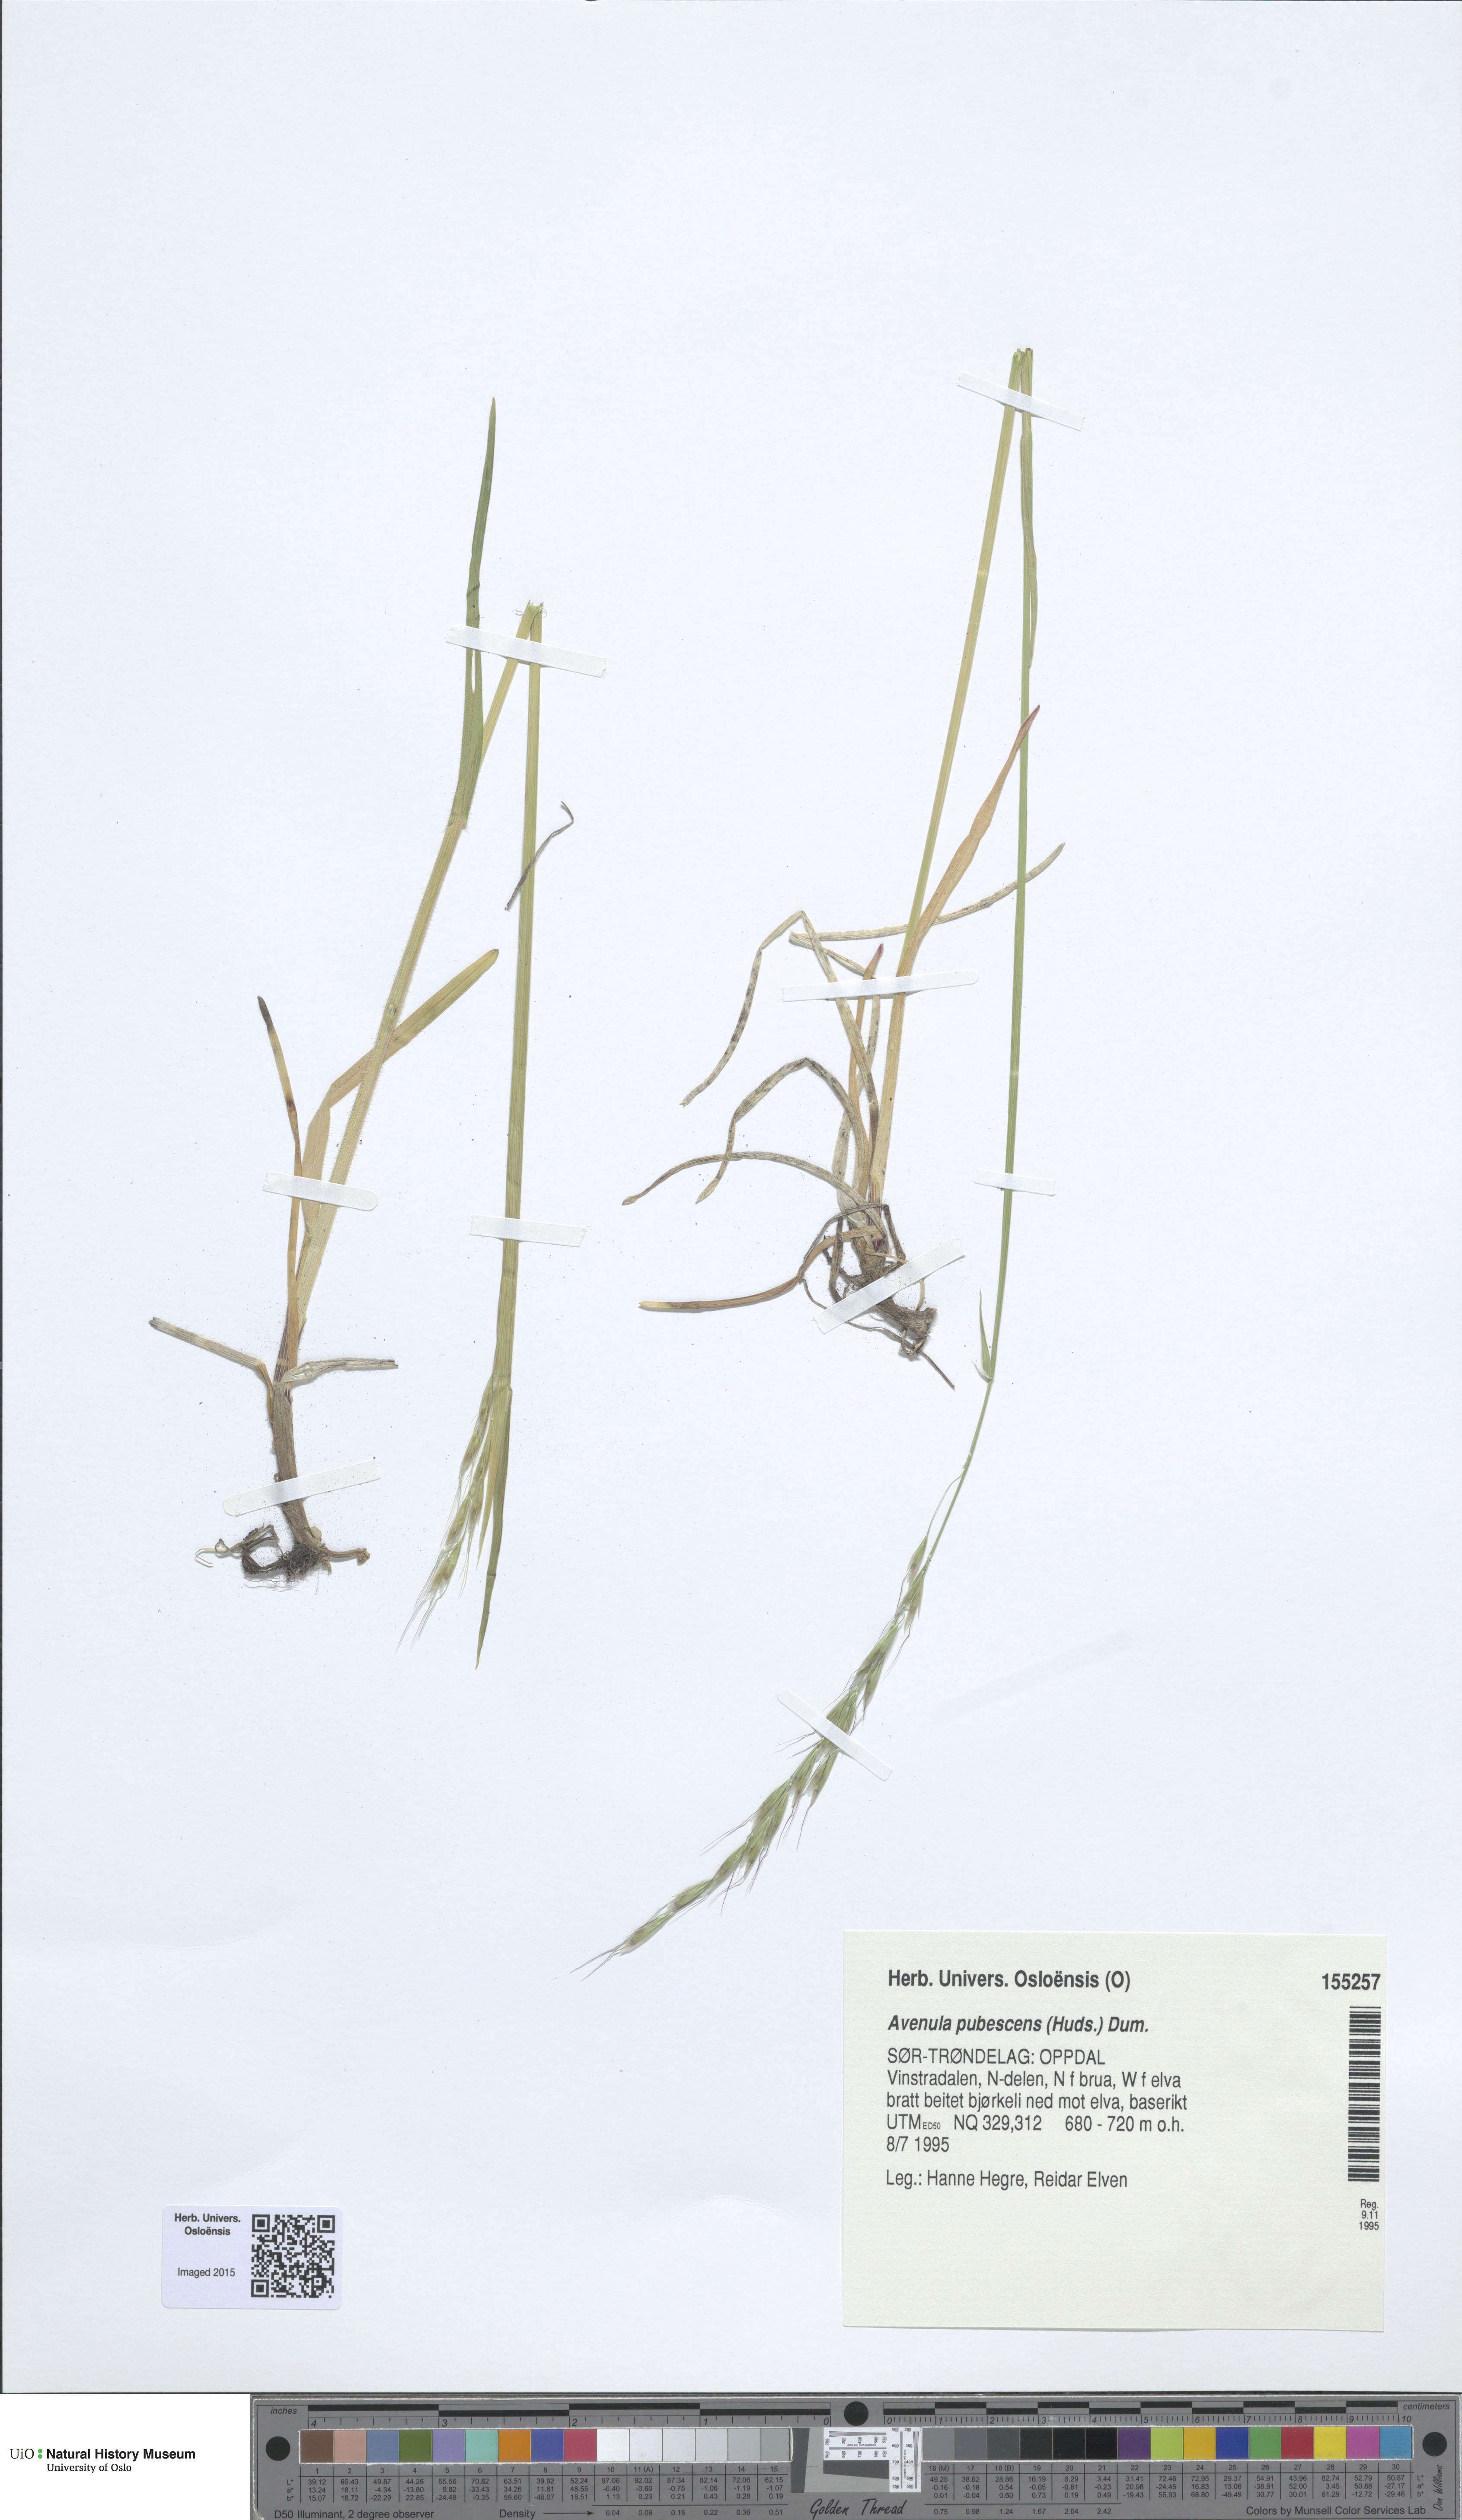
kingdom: Plantae
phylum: Tracheophyta
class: Liliopsida
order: Poales
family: Poaceae
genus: Avenula
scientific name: Avenula pubescens
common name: Downy alpine oatgrass
